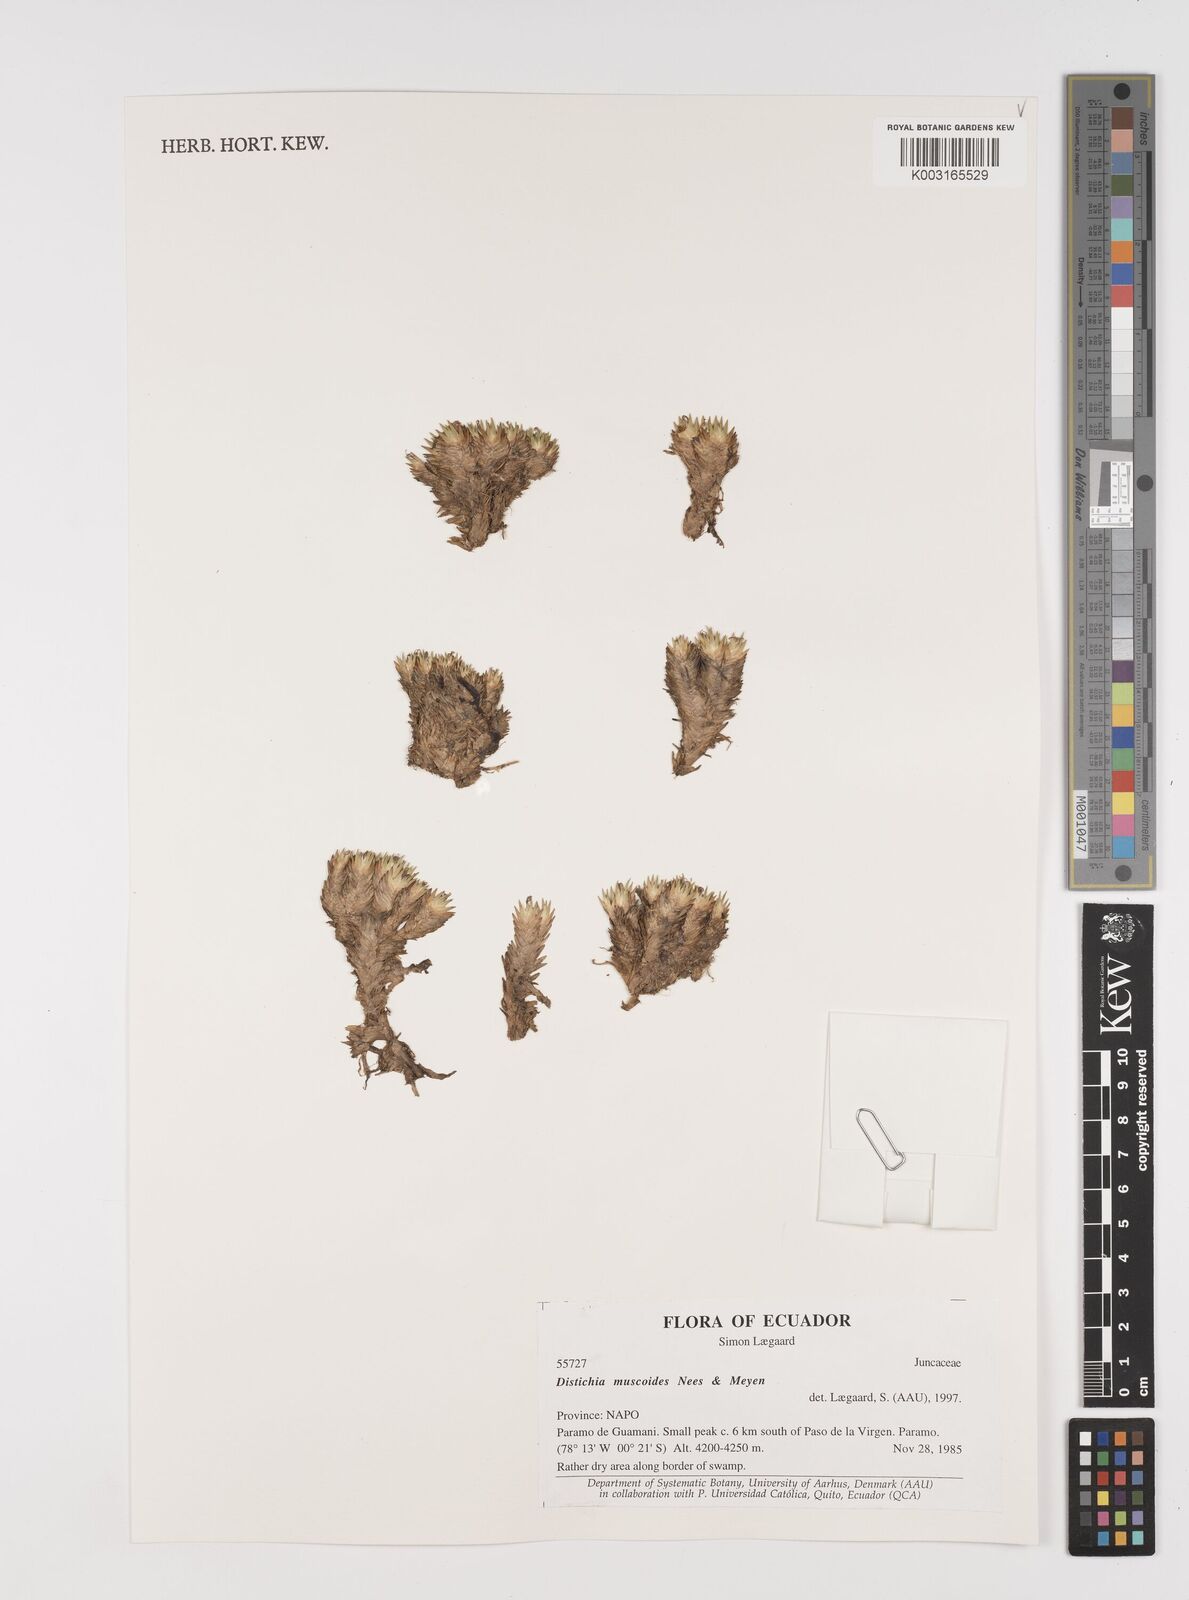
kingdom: Plantae
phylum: Tracheophyta
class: Liliopsida
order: Poales
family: Juncaceae
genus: Distichia
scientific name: Distichia muscoides
